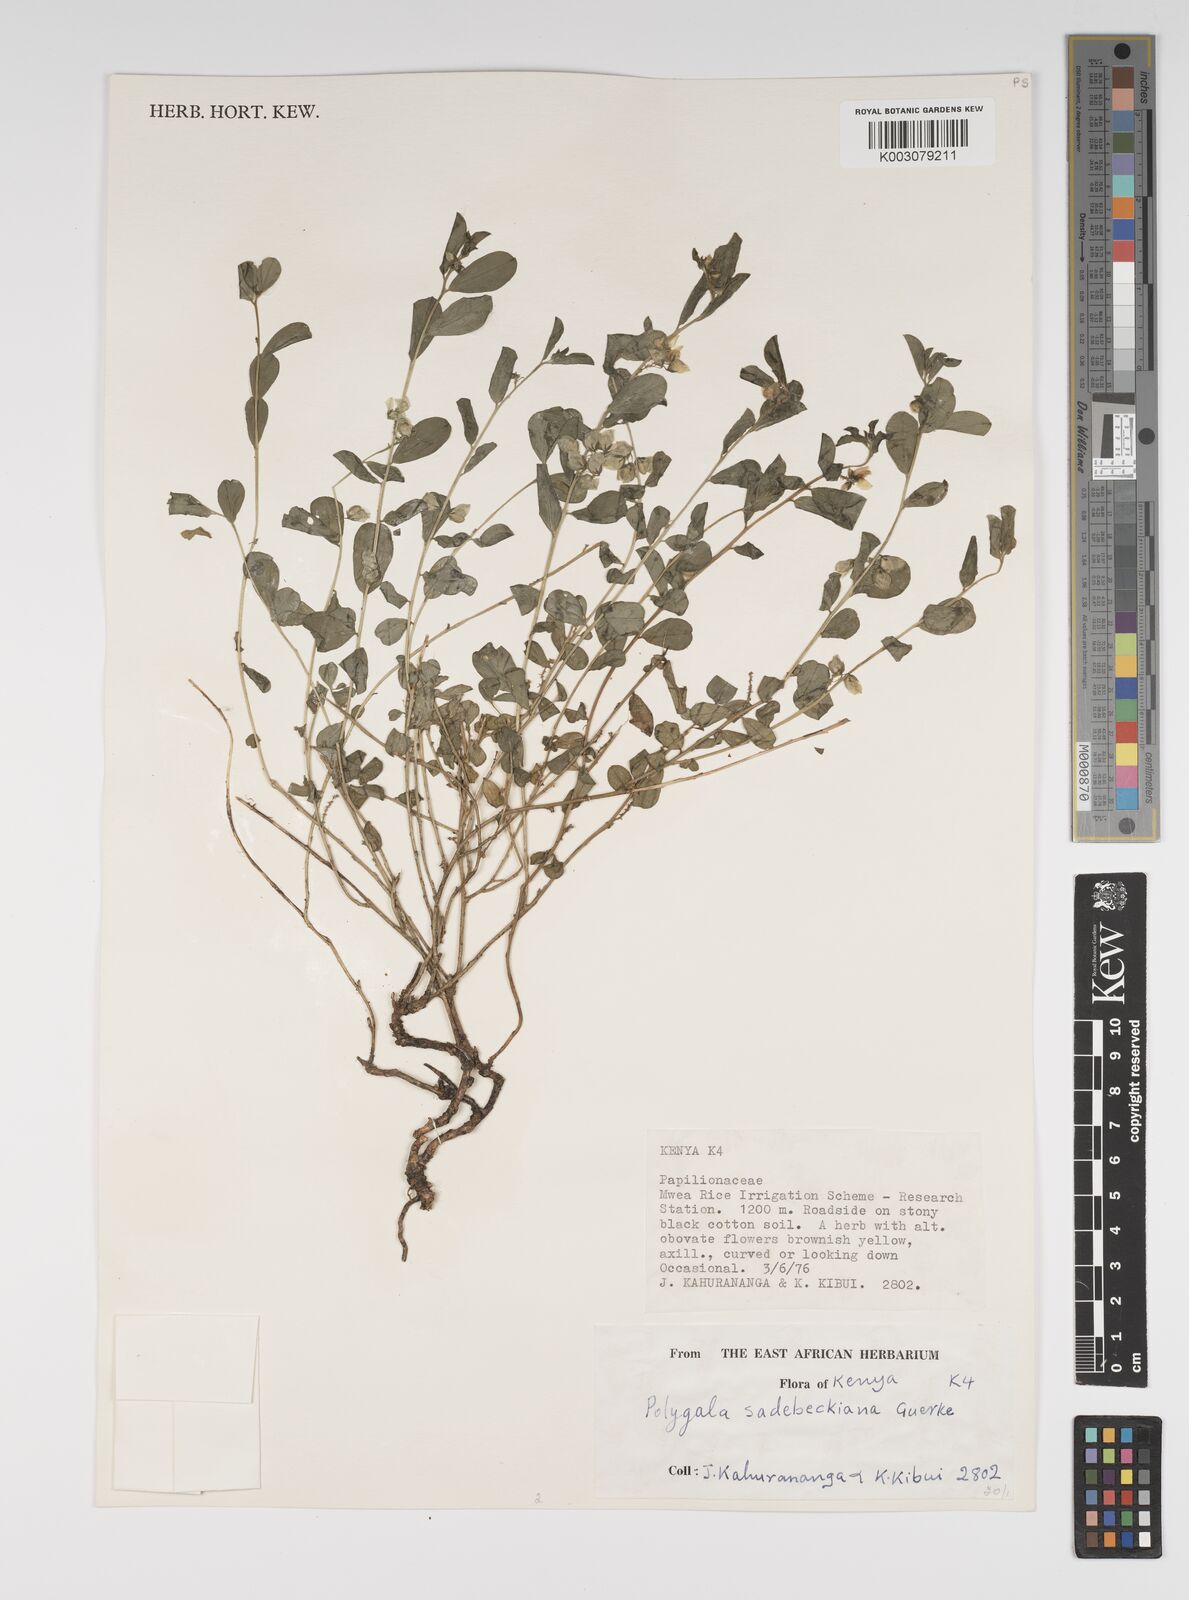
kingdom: Plantae
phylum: Tracheophyta
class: Magnoliopsida
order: Fabales
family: Polygalaceae
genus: Polygala
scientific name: Polygala sadebeckiana
